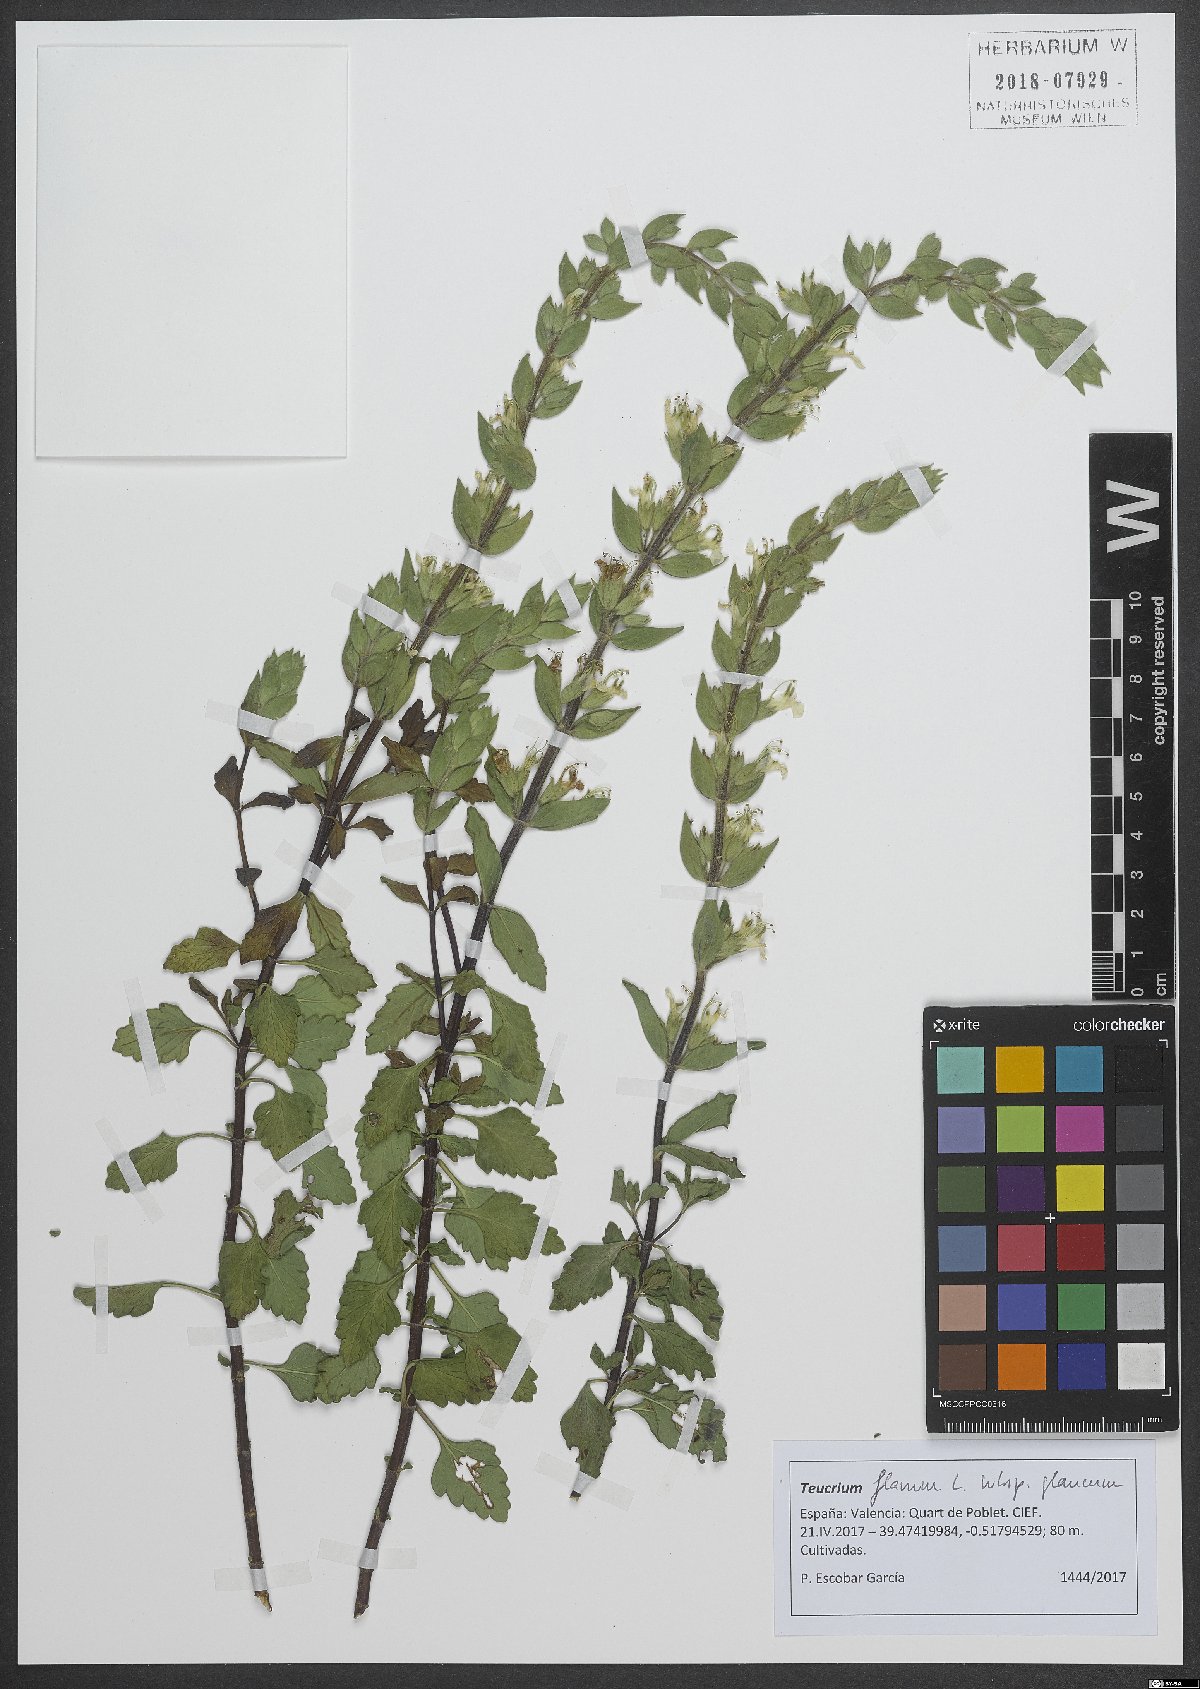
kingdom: Plantae
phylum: Tracheophyta
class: Magnoliopsida
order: Lamiales
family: Lamiaceae
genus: Teucrium
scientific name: Teucrium flavum
